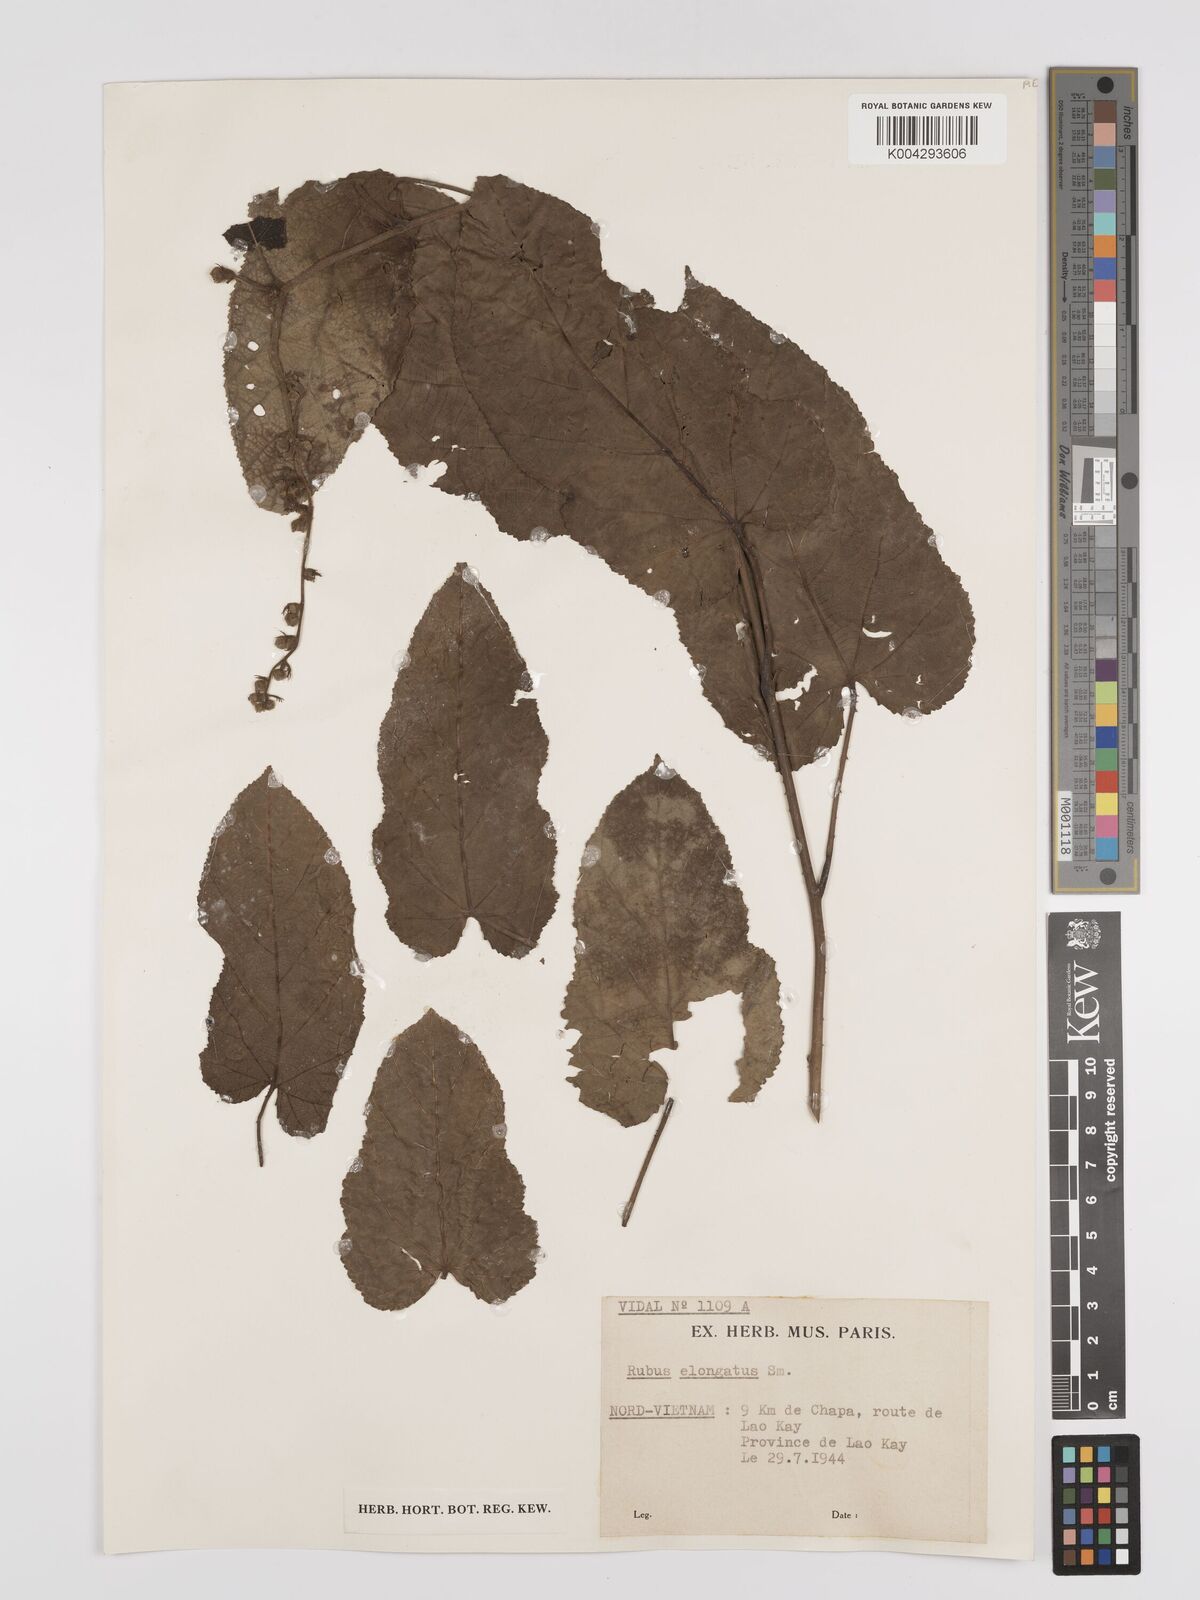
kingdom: Plantae
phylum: Tracheophyta
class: Magnoliopsida
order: Rosales
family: Rosaceae
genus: Rubus
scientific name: Rubus
